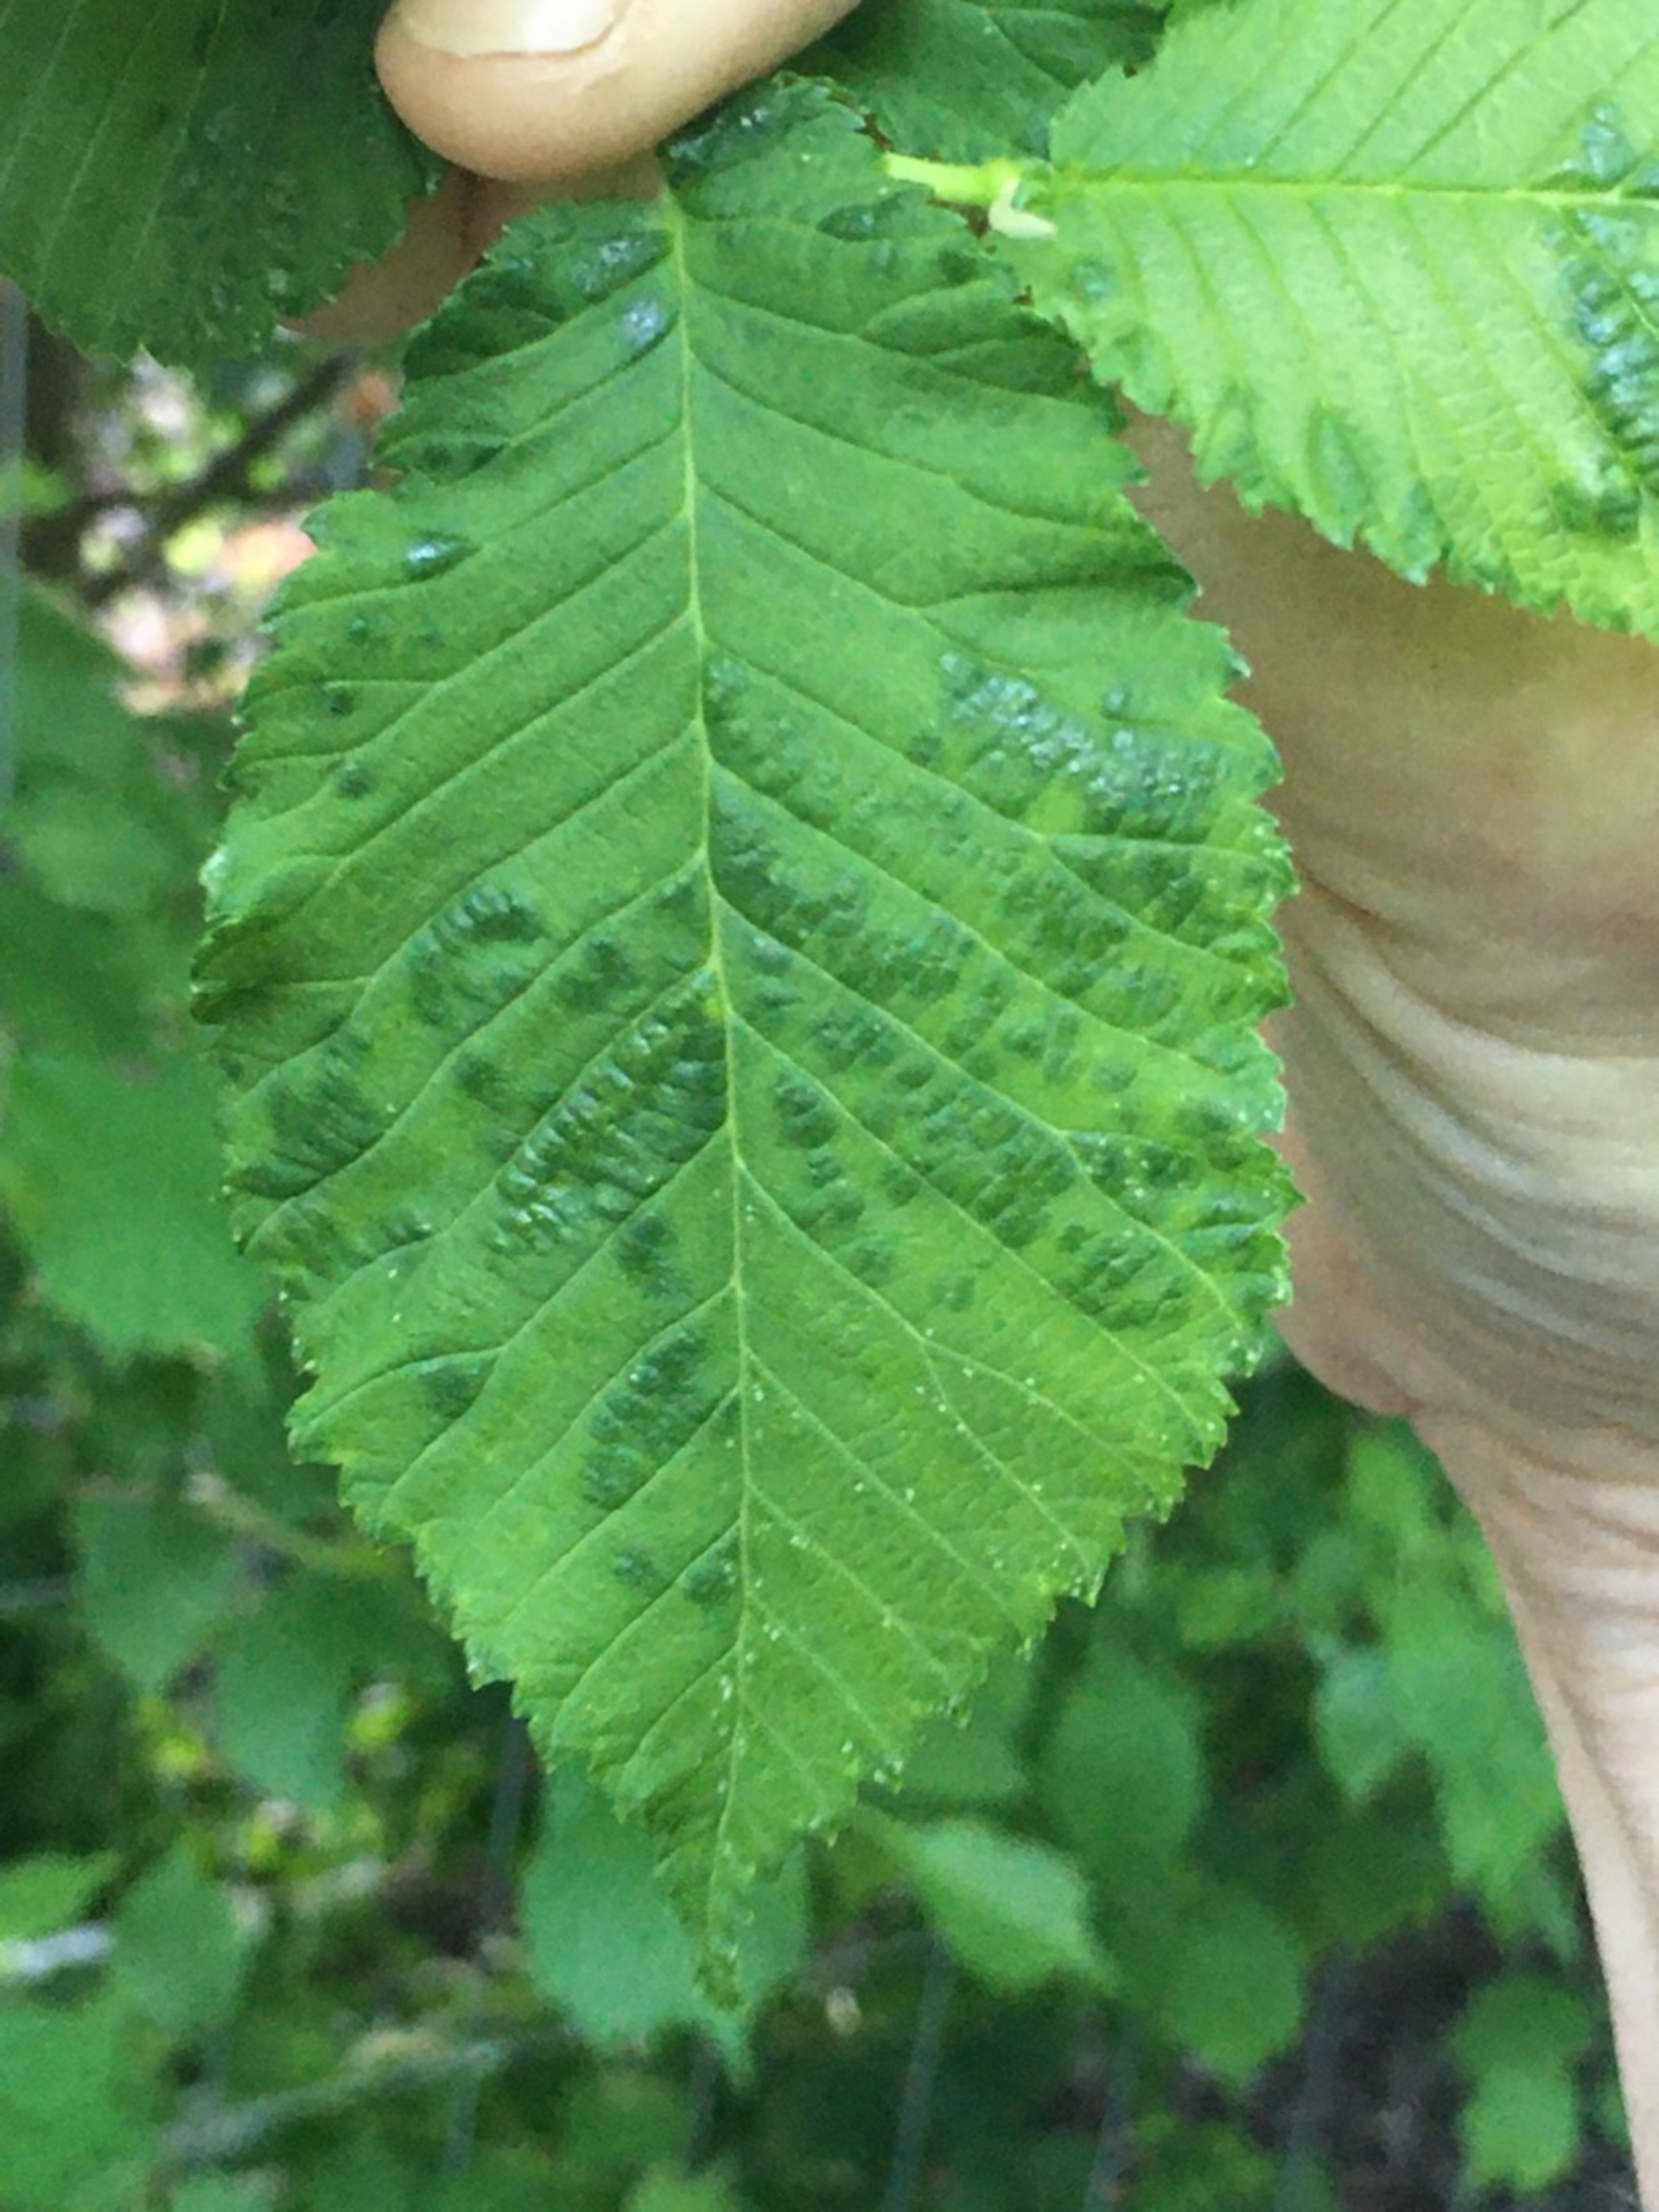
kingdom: Animalia
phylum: Arthropoda
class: Arachnida
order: Trombidiformes
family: Eriophyidae
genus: Aceria
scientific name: Aceria filiformis
